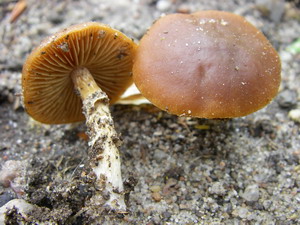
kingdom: Fungi
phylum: Basidiomycota
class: Agaricomycetes
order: Agaricales
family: Bolbitiaceae
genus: Conocybe
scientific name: Conocybe aporos
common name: tidlig dansehat
